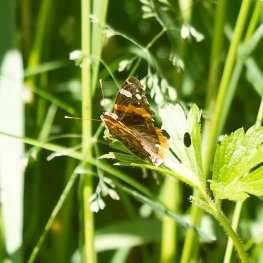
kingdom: Animalia
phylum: Arthropoda
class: Insecta
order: Lepidoptera
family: Nymphalidae
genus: Vanessa
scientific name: Vanessa atalanta
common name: Red Admiral
